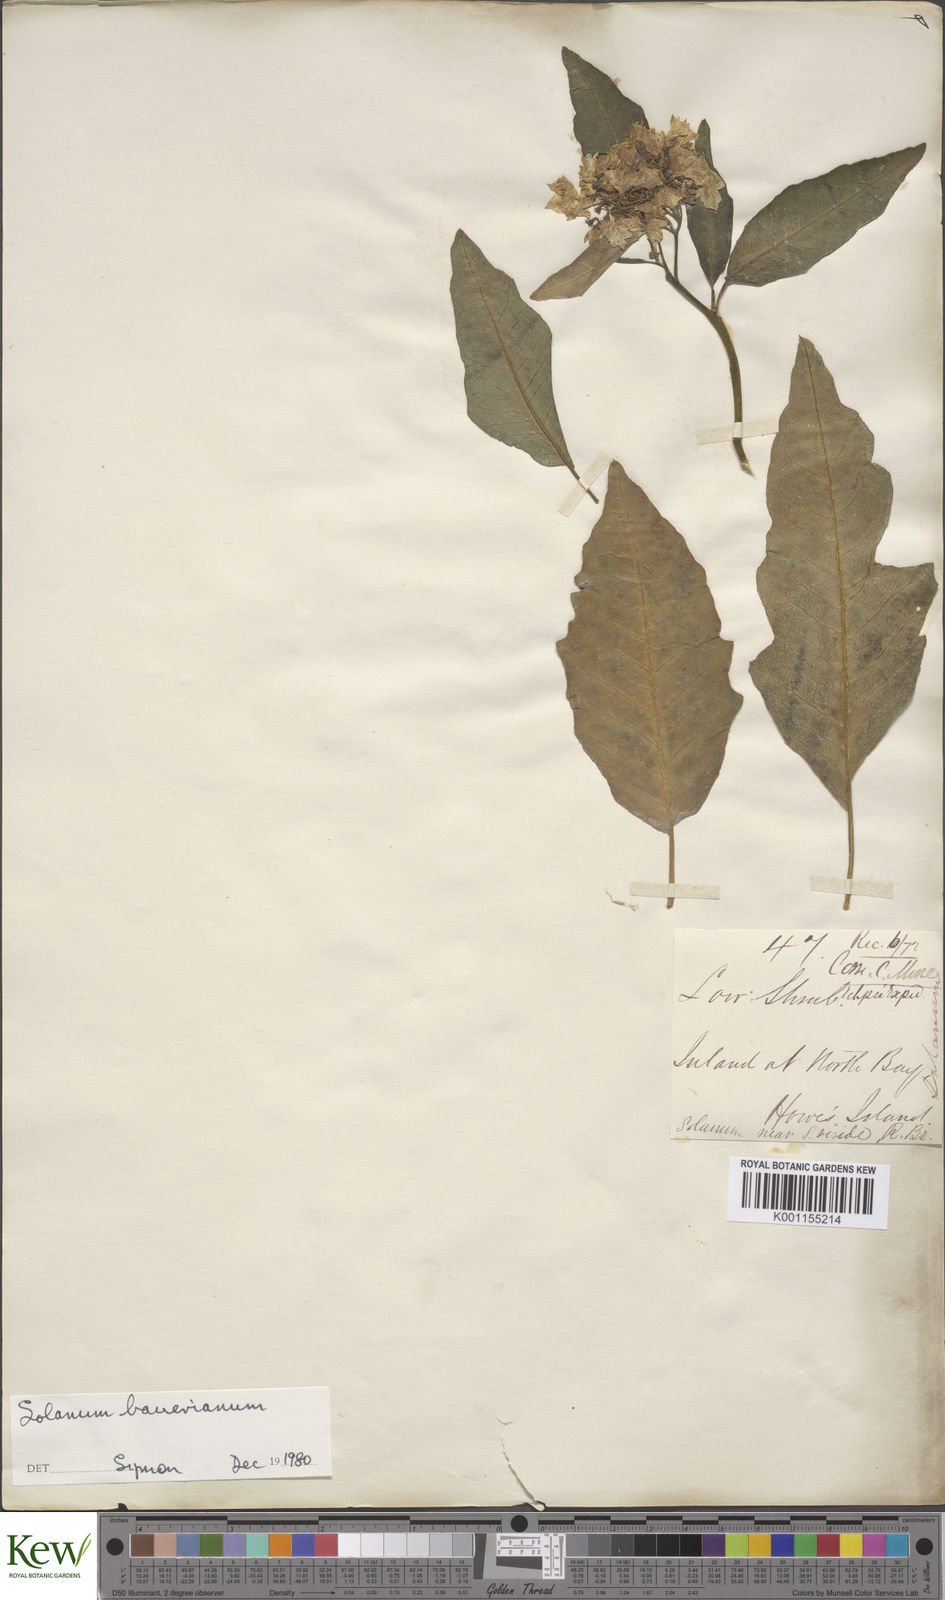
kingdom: Plantae
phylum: Tracheophyta
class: Magnoliopsida
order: Solanales
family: Solanaceae
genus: Solanum
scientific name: Solanum bauerianum
